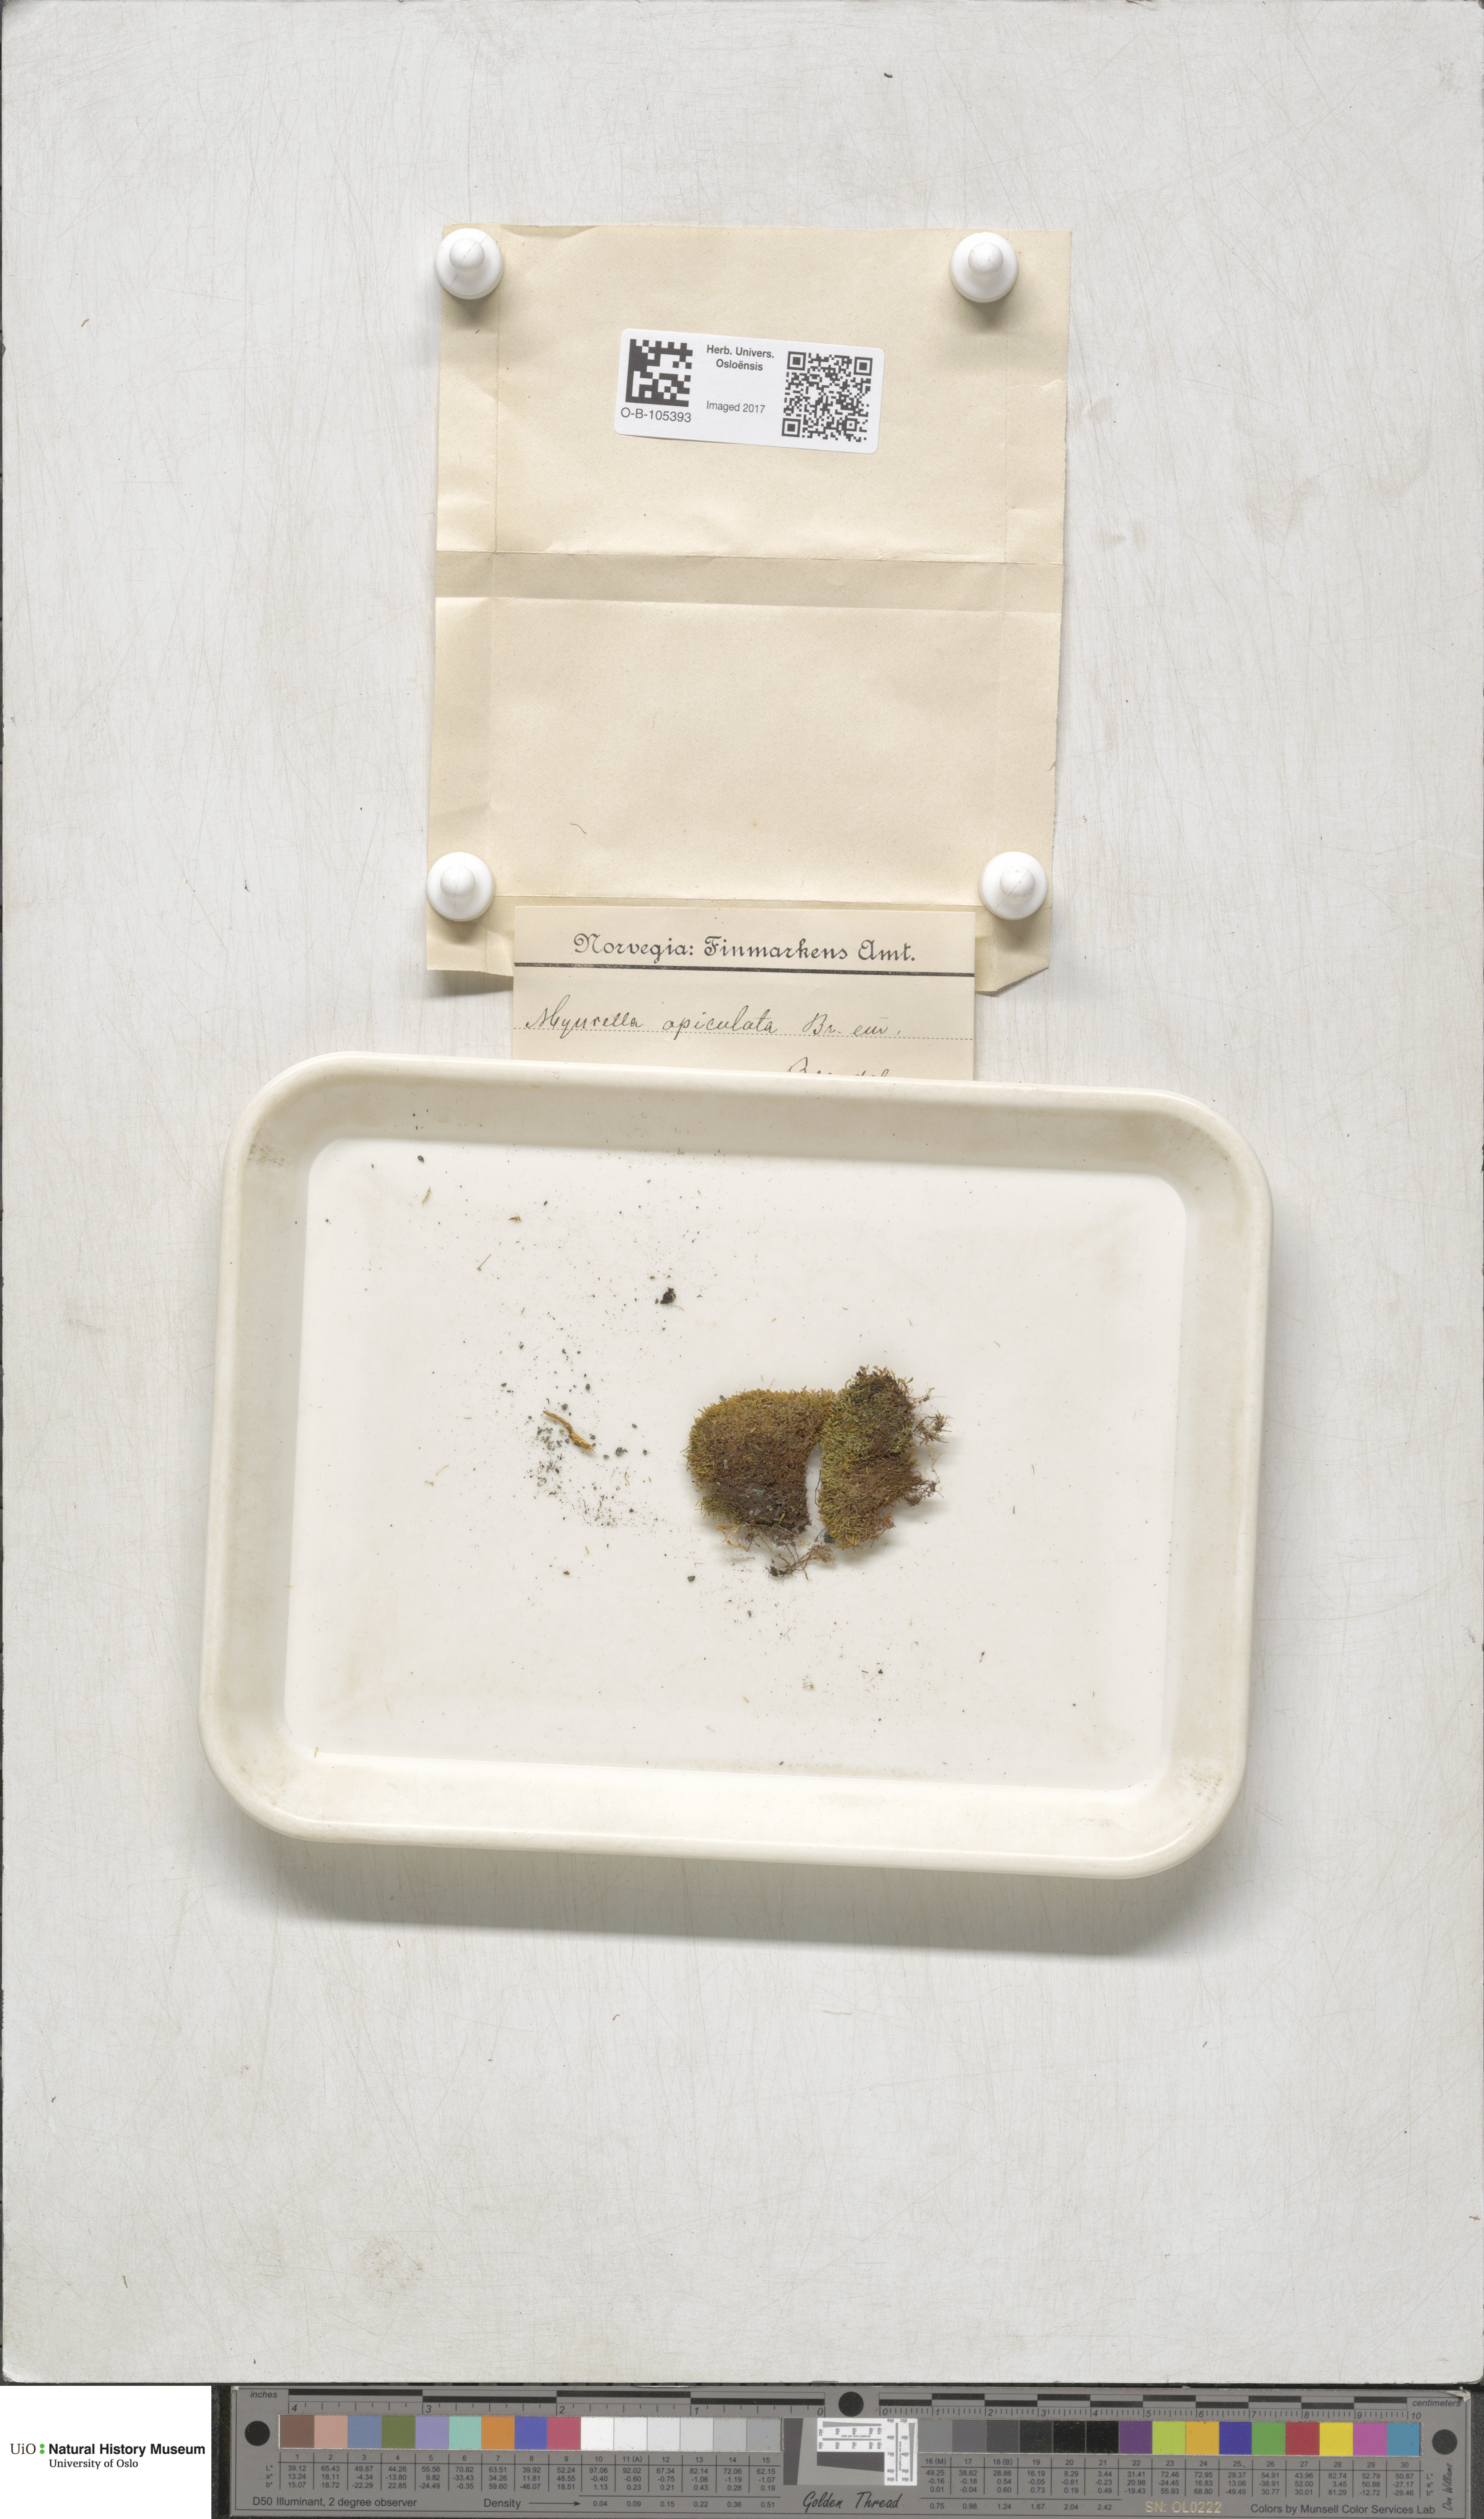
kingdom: Plantae
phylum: Bryophyta
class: Bryopsida
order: Hypnales
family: Plagiotheciaceae
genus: Myurella
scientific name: Myurella tenerrima
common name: Dwarf mousetail moss
